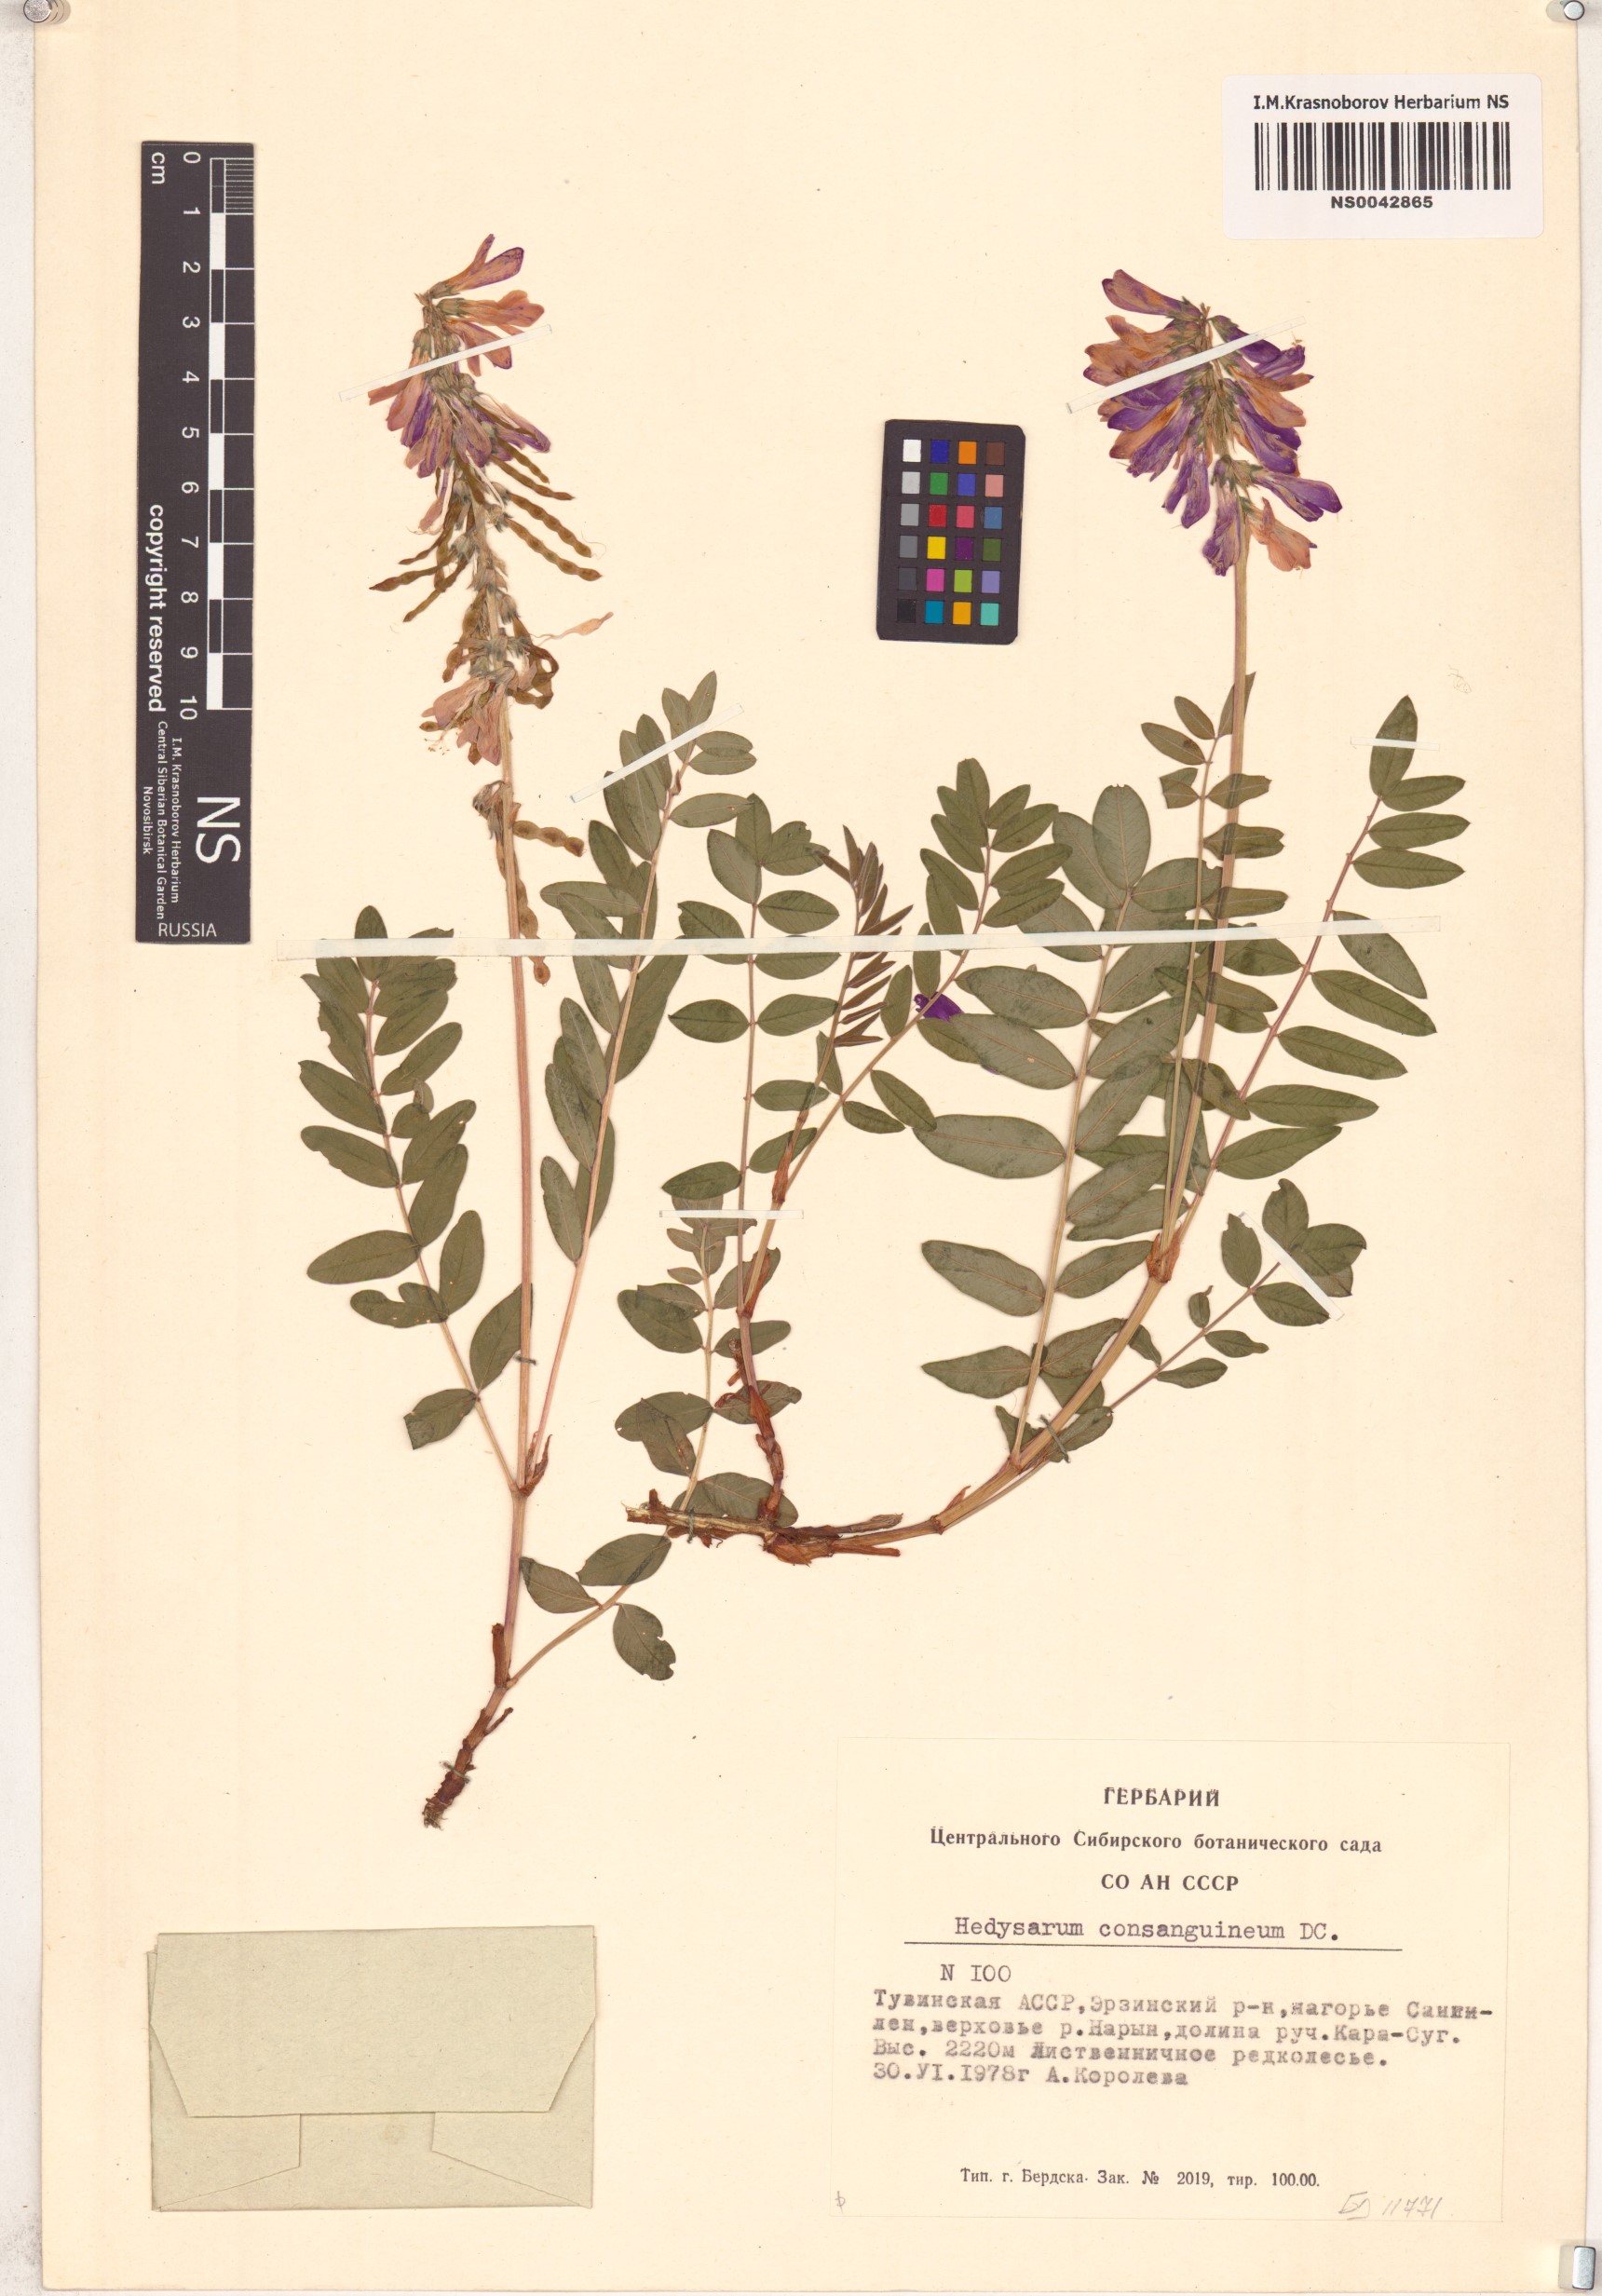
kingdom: Plantae
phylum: Tracheophyta
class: Magnoliopsida
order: Fabales
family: Fabaceae
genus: Hedysarum
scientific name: Hedysarum consanguineum
